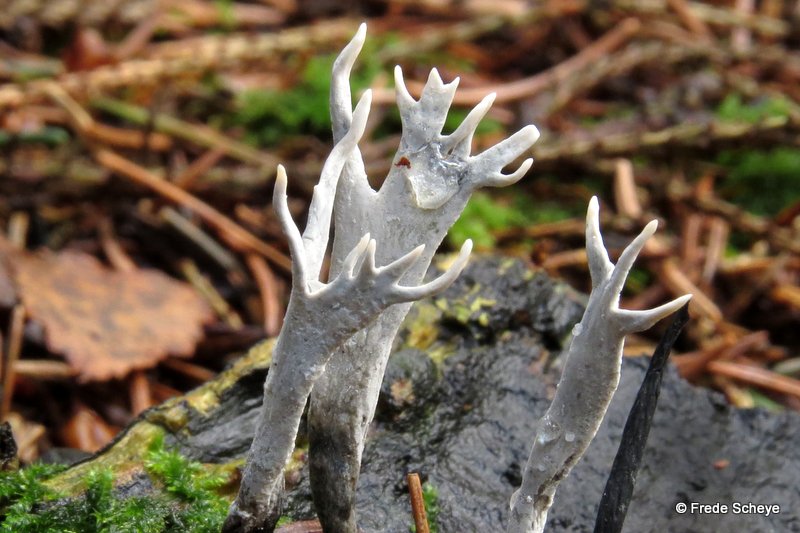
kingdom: Fungi
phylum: Ascomycota
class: Sordariomycetes
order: Xylariales
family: Xylariaceae
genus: Xylaria
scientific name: Xylaria hypoxylon
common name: grenet stødsvamp
